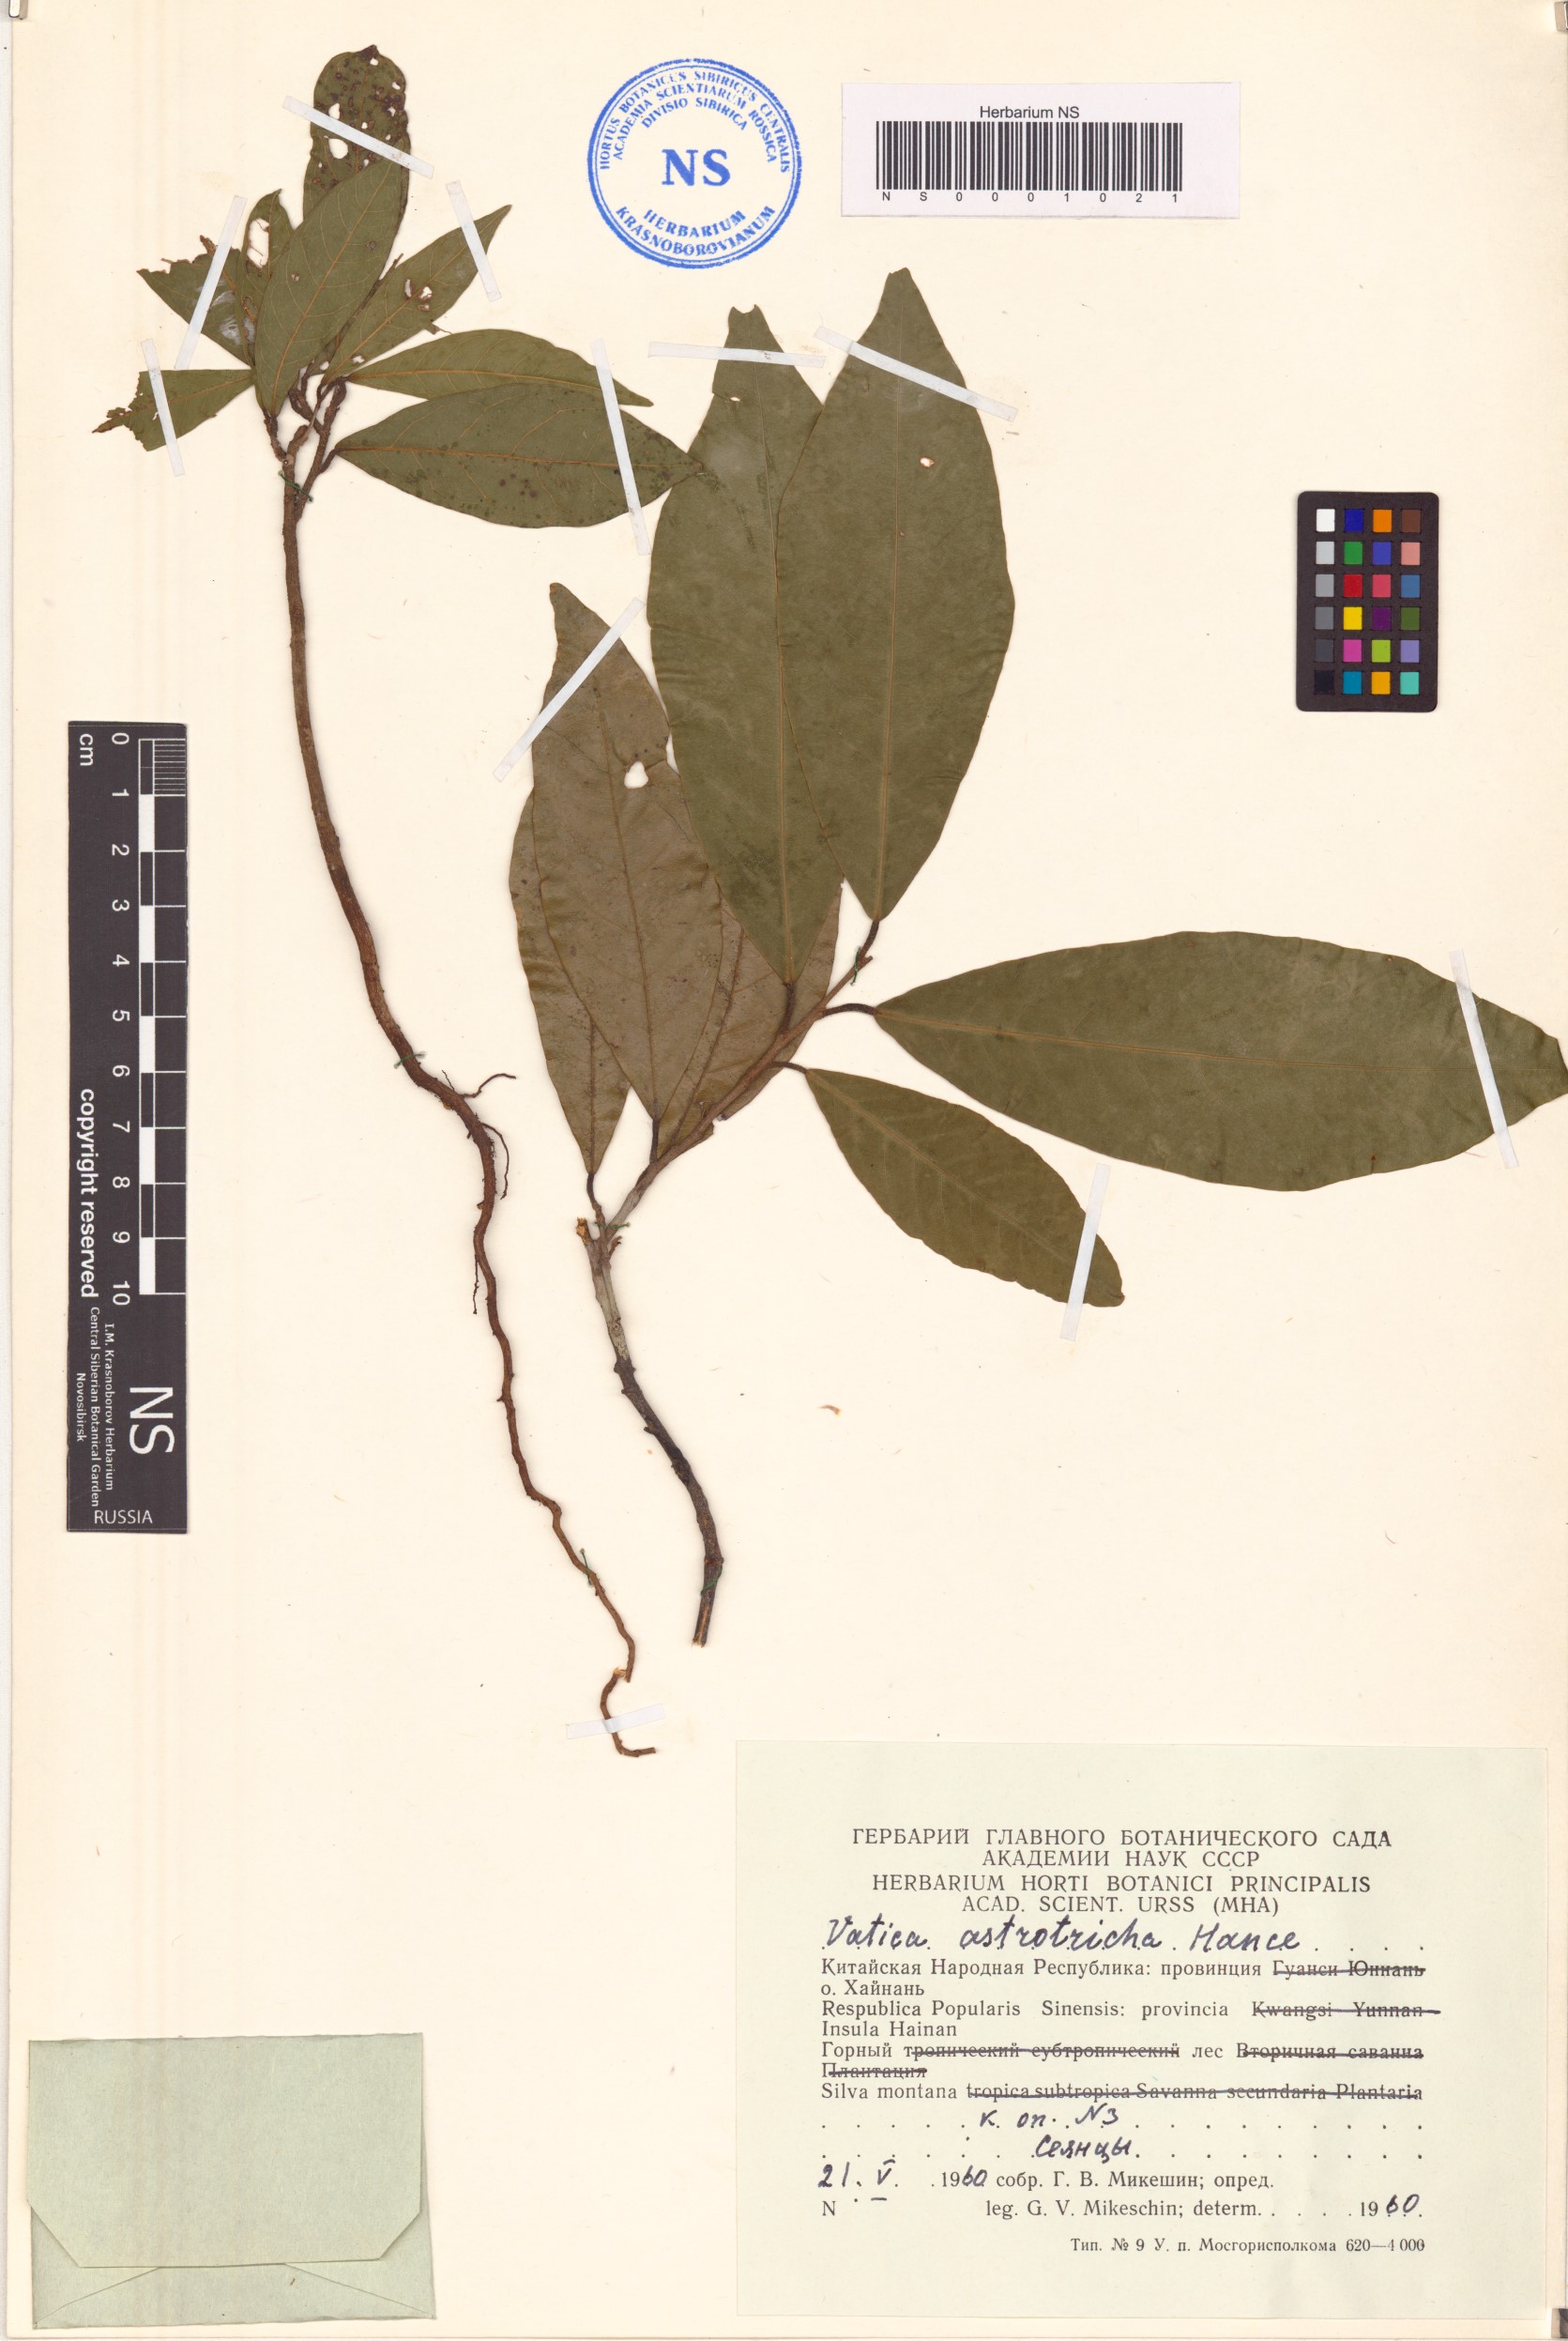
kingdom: Plantae
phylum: Tracheophyta
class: Magnoliopsida
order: Malvales
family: Dipterocarpaceae
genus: Vatica
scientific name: Vatica odorata
